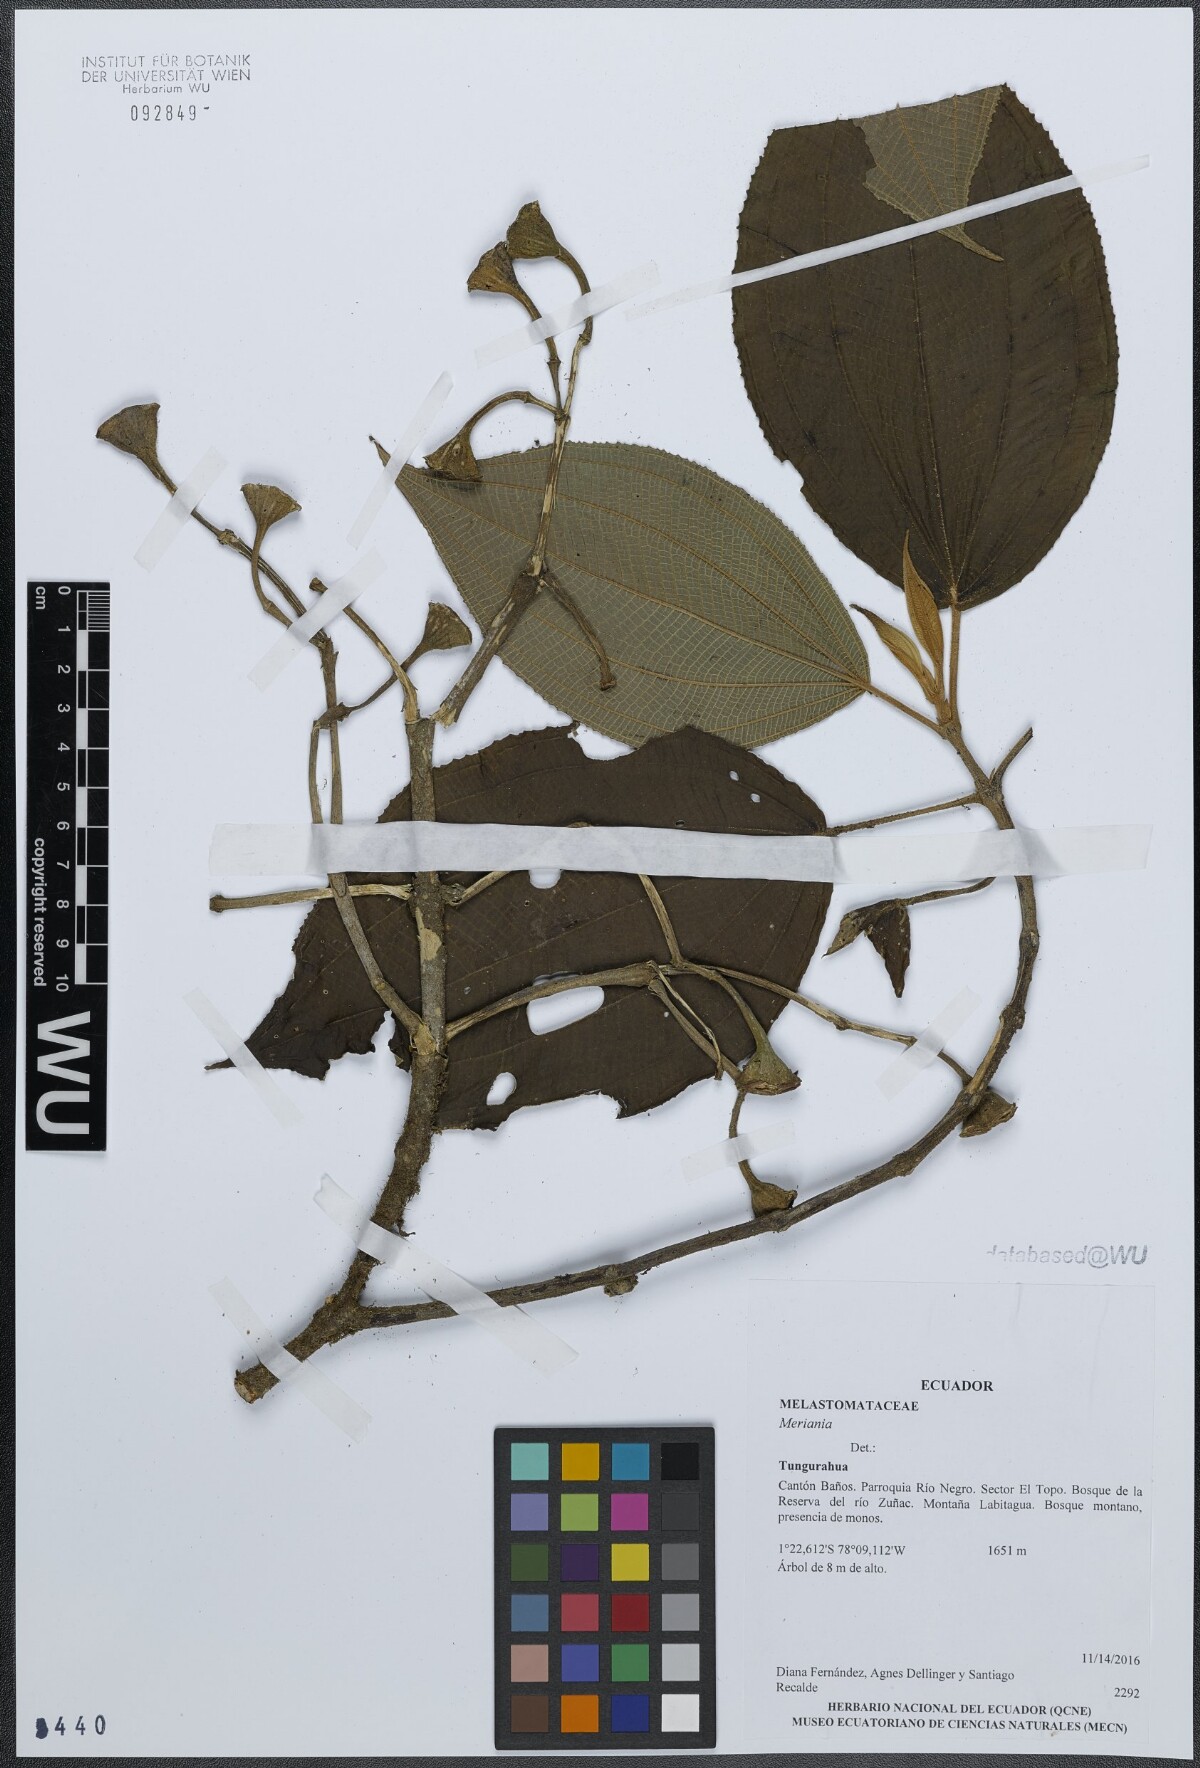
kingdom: Plantae
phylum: Tracheophyta
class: Magnoliopsida
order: Myrtales
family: Melastomataceae
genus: Meriania
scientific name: Meriania
